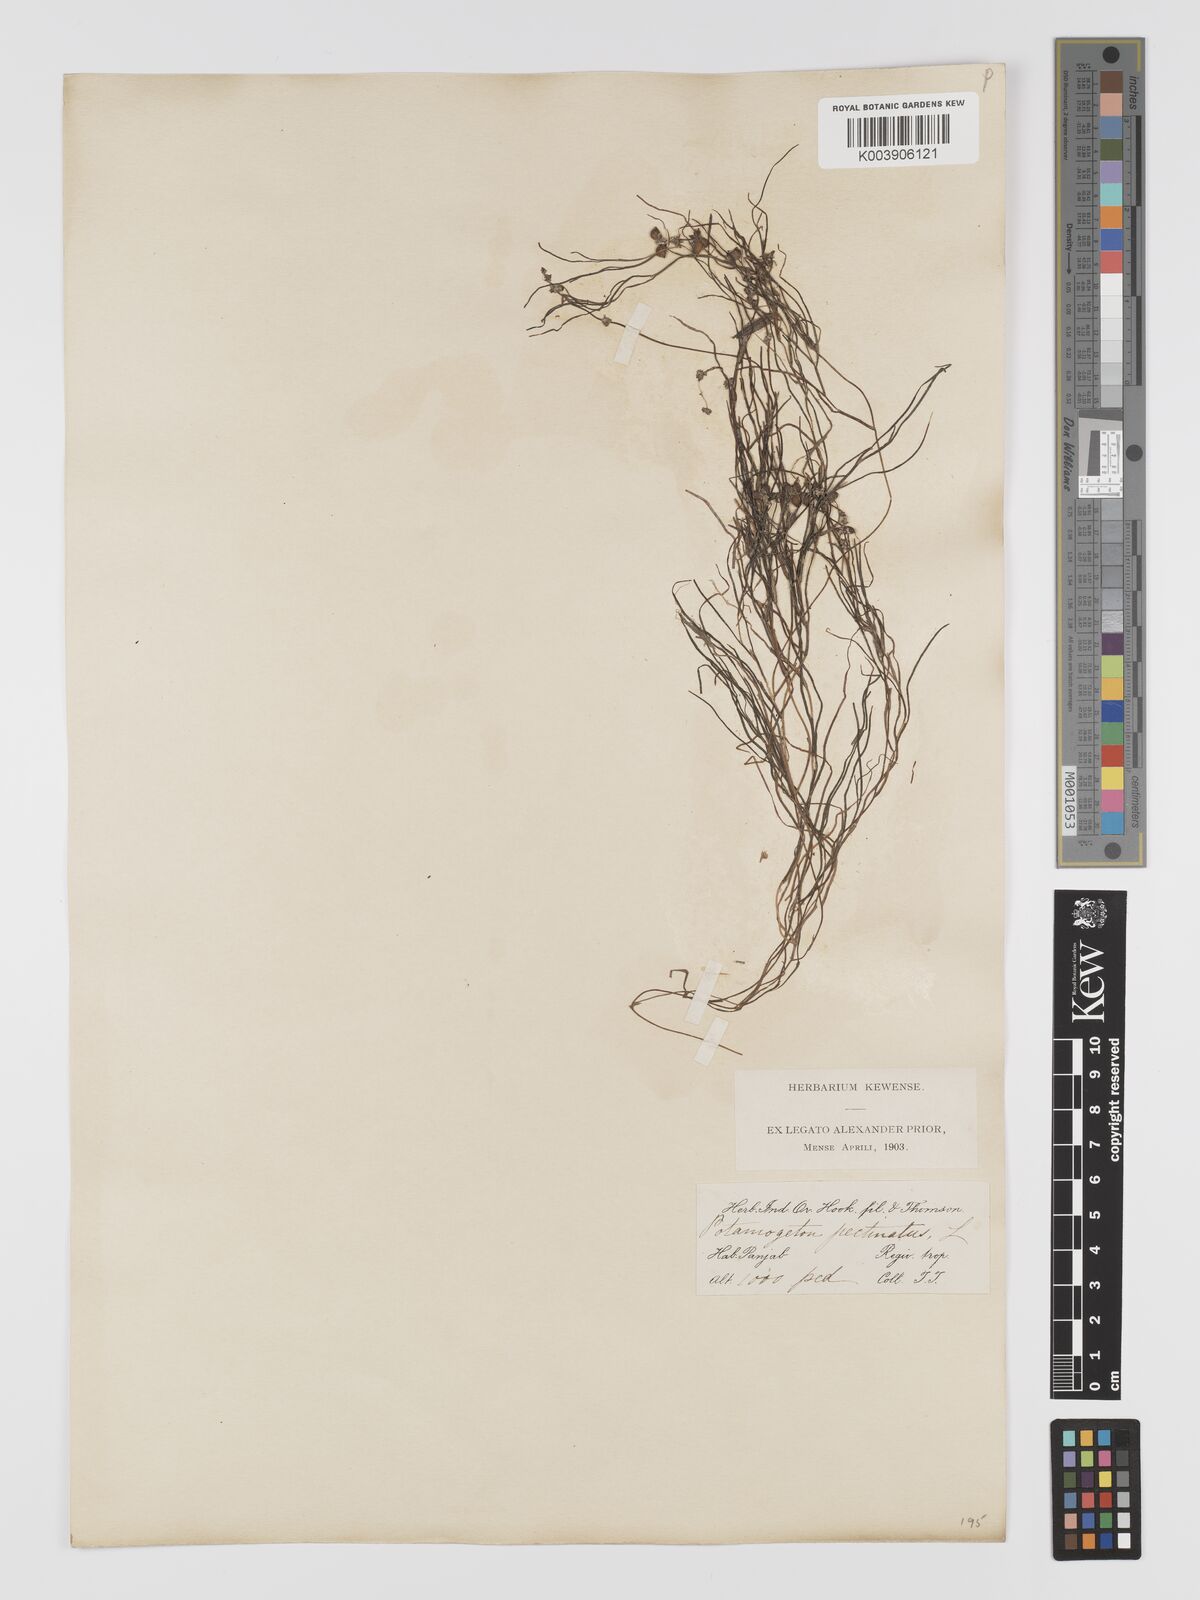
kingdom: Plantae
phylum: Tracheophyta
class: Liliopsida
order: Alismatales
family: Potamogetonaceae
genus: Stuckenia
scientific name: Stuckenia pectinata
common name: Sago pondweed
